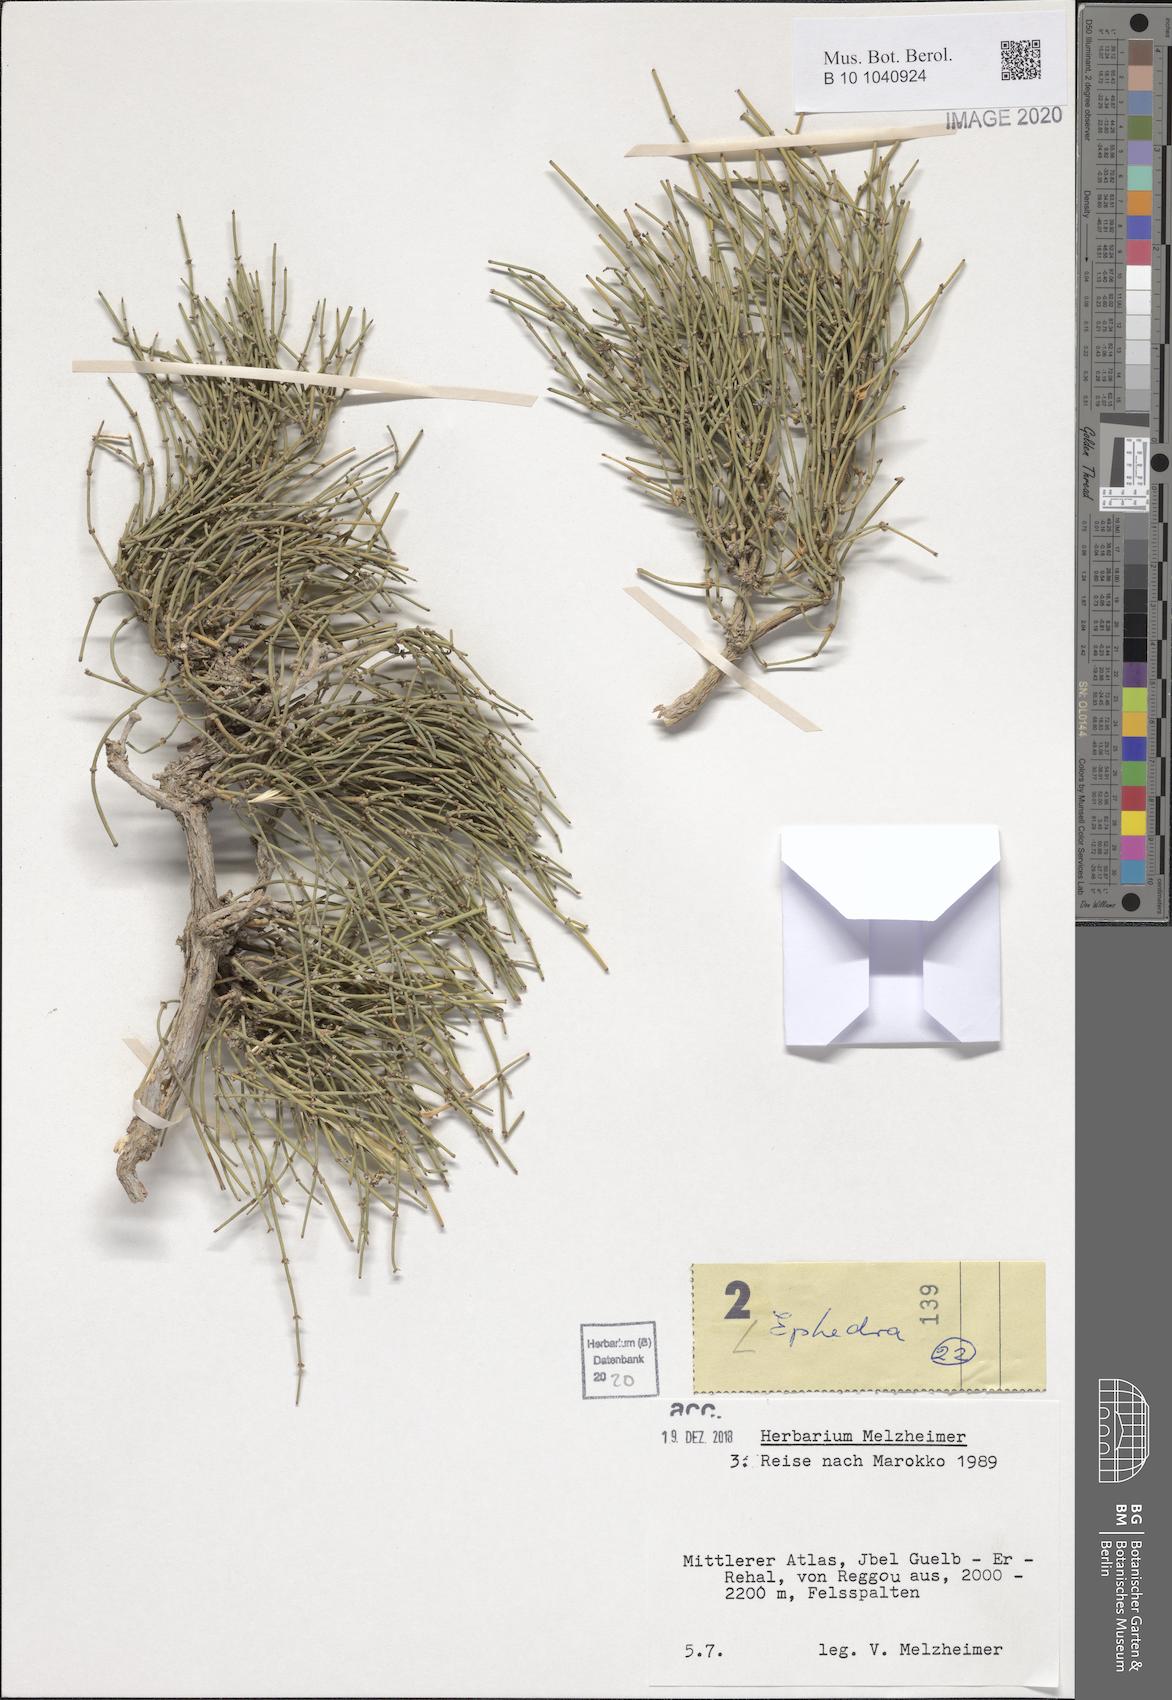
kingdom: Plantae
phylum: Tracheophyta
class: Gnetopsida
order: Ephedrales
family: Ephedraceae
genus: Ephedra
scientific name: Ephedra
